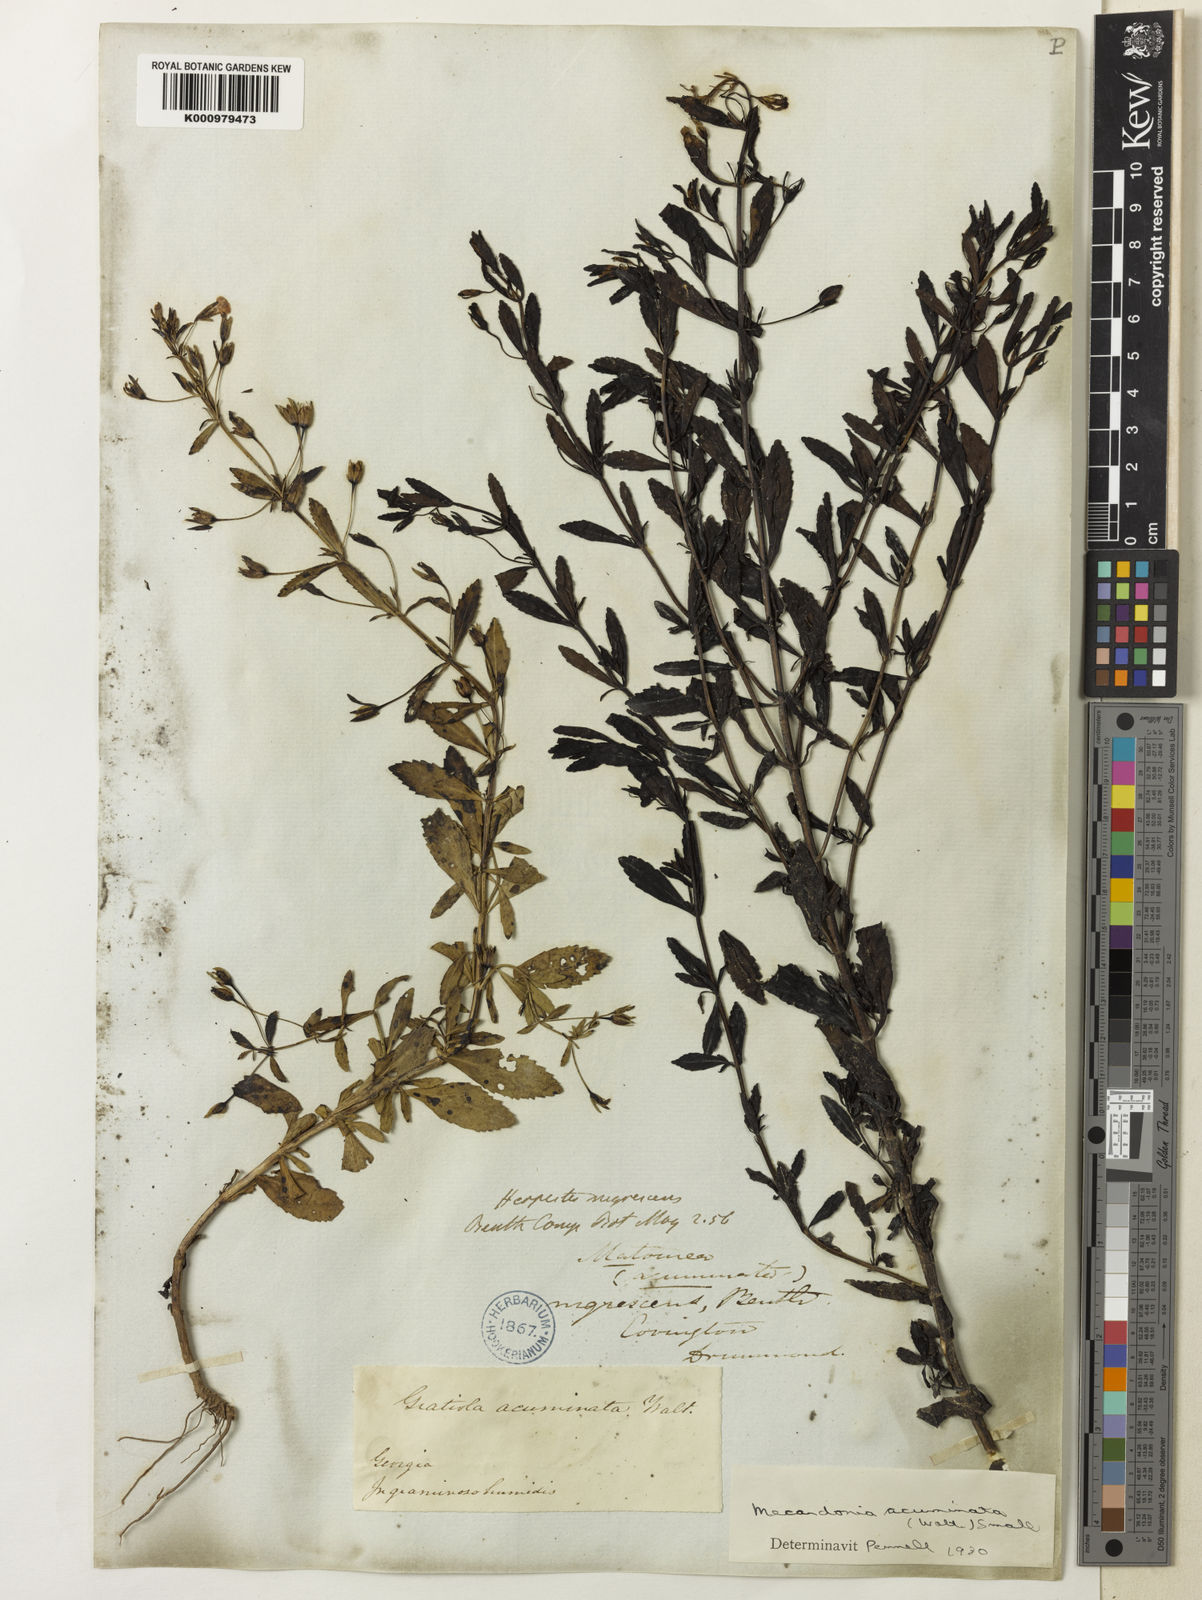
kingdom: Plantae
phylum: Tracheophyta
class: Magnoliopsida
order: Lamiales
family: Plantaginaceae
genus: Mecardonia
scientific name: Mecardonia
